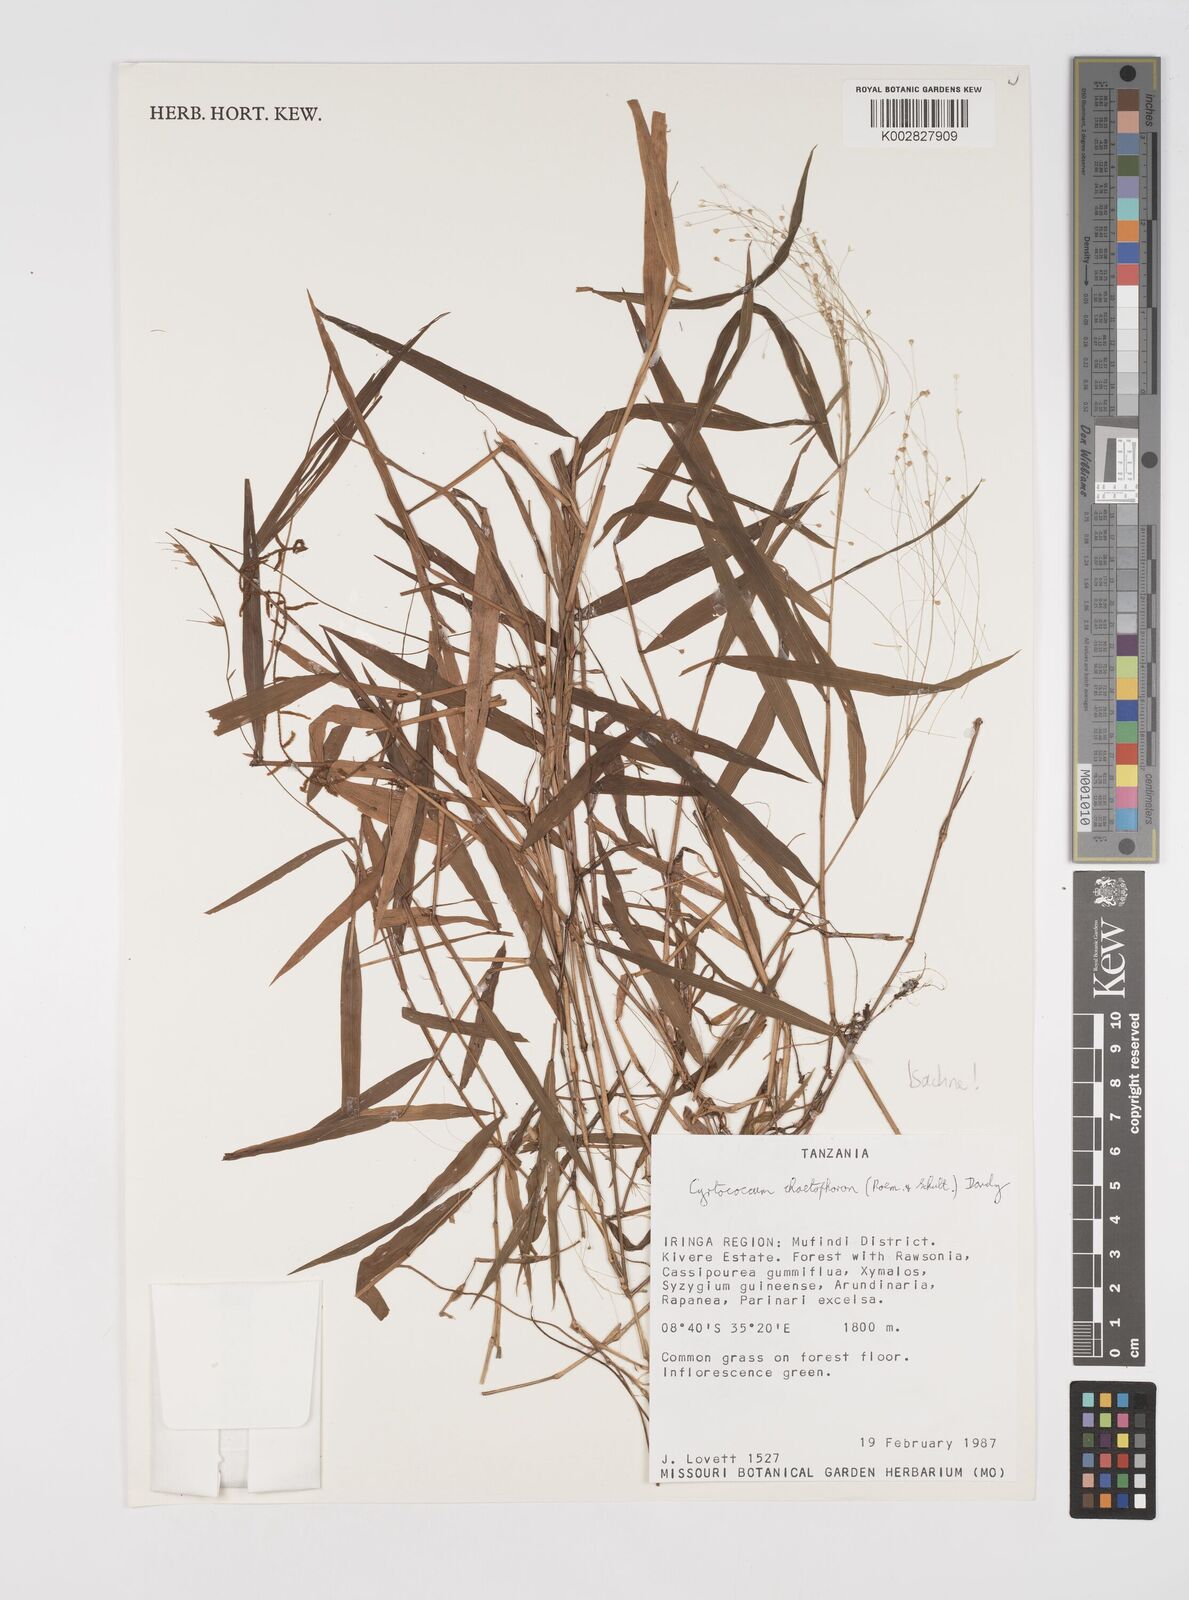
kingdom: Plantae
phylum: Tracheophyta
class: Liliopsida
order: Poales
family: Poaceae
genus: Cyrtococcum
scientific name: Cyrtococcum chaetophoron
